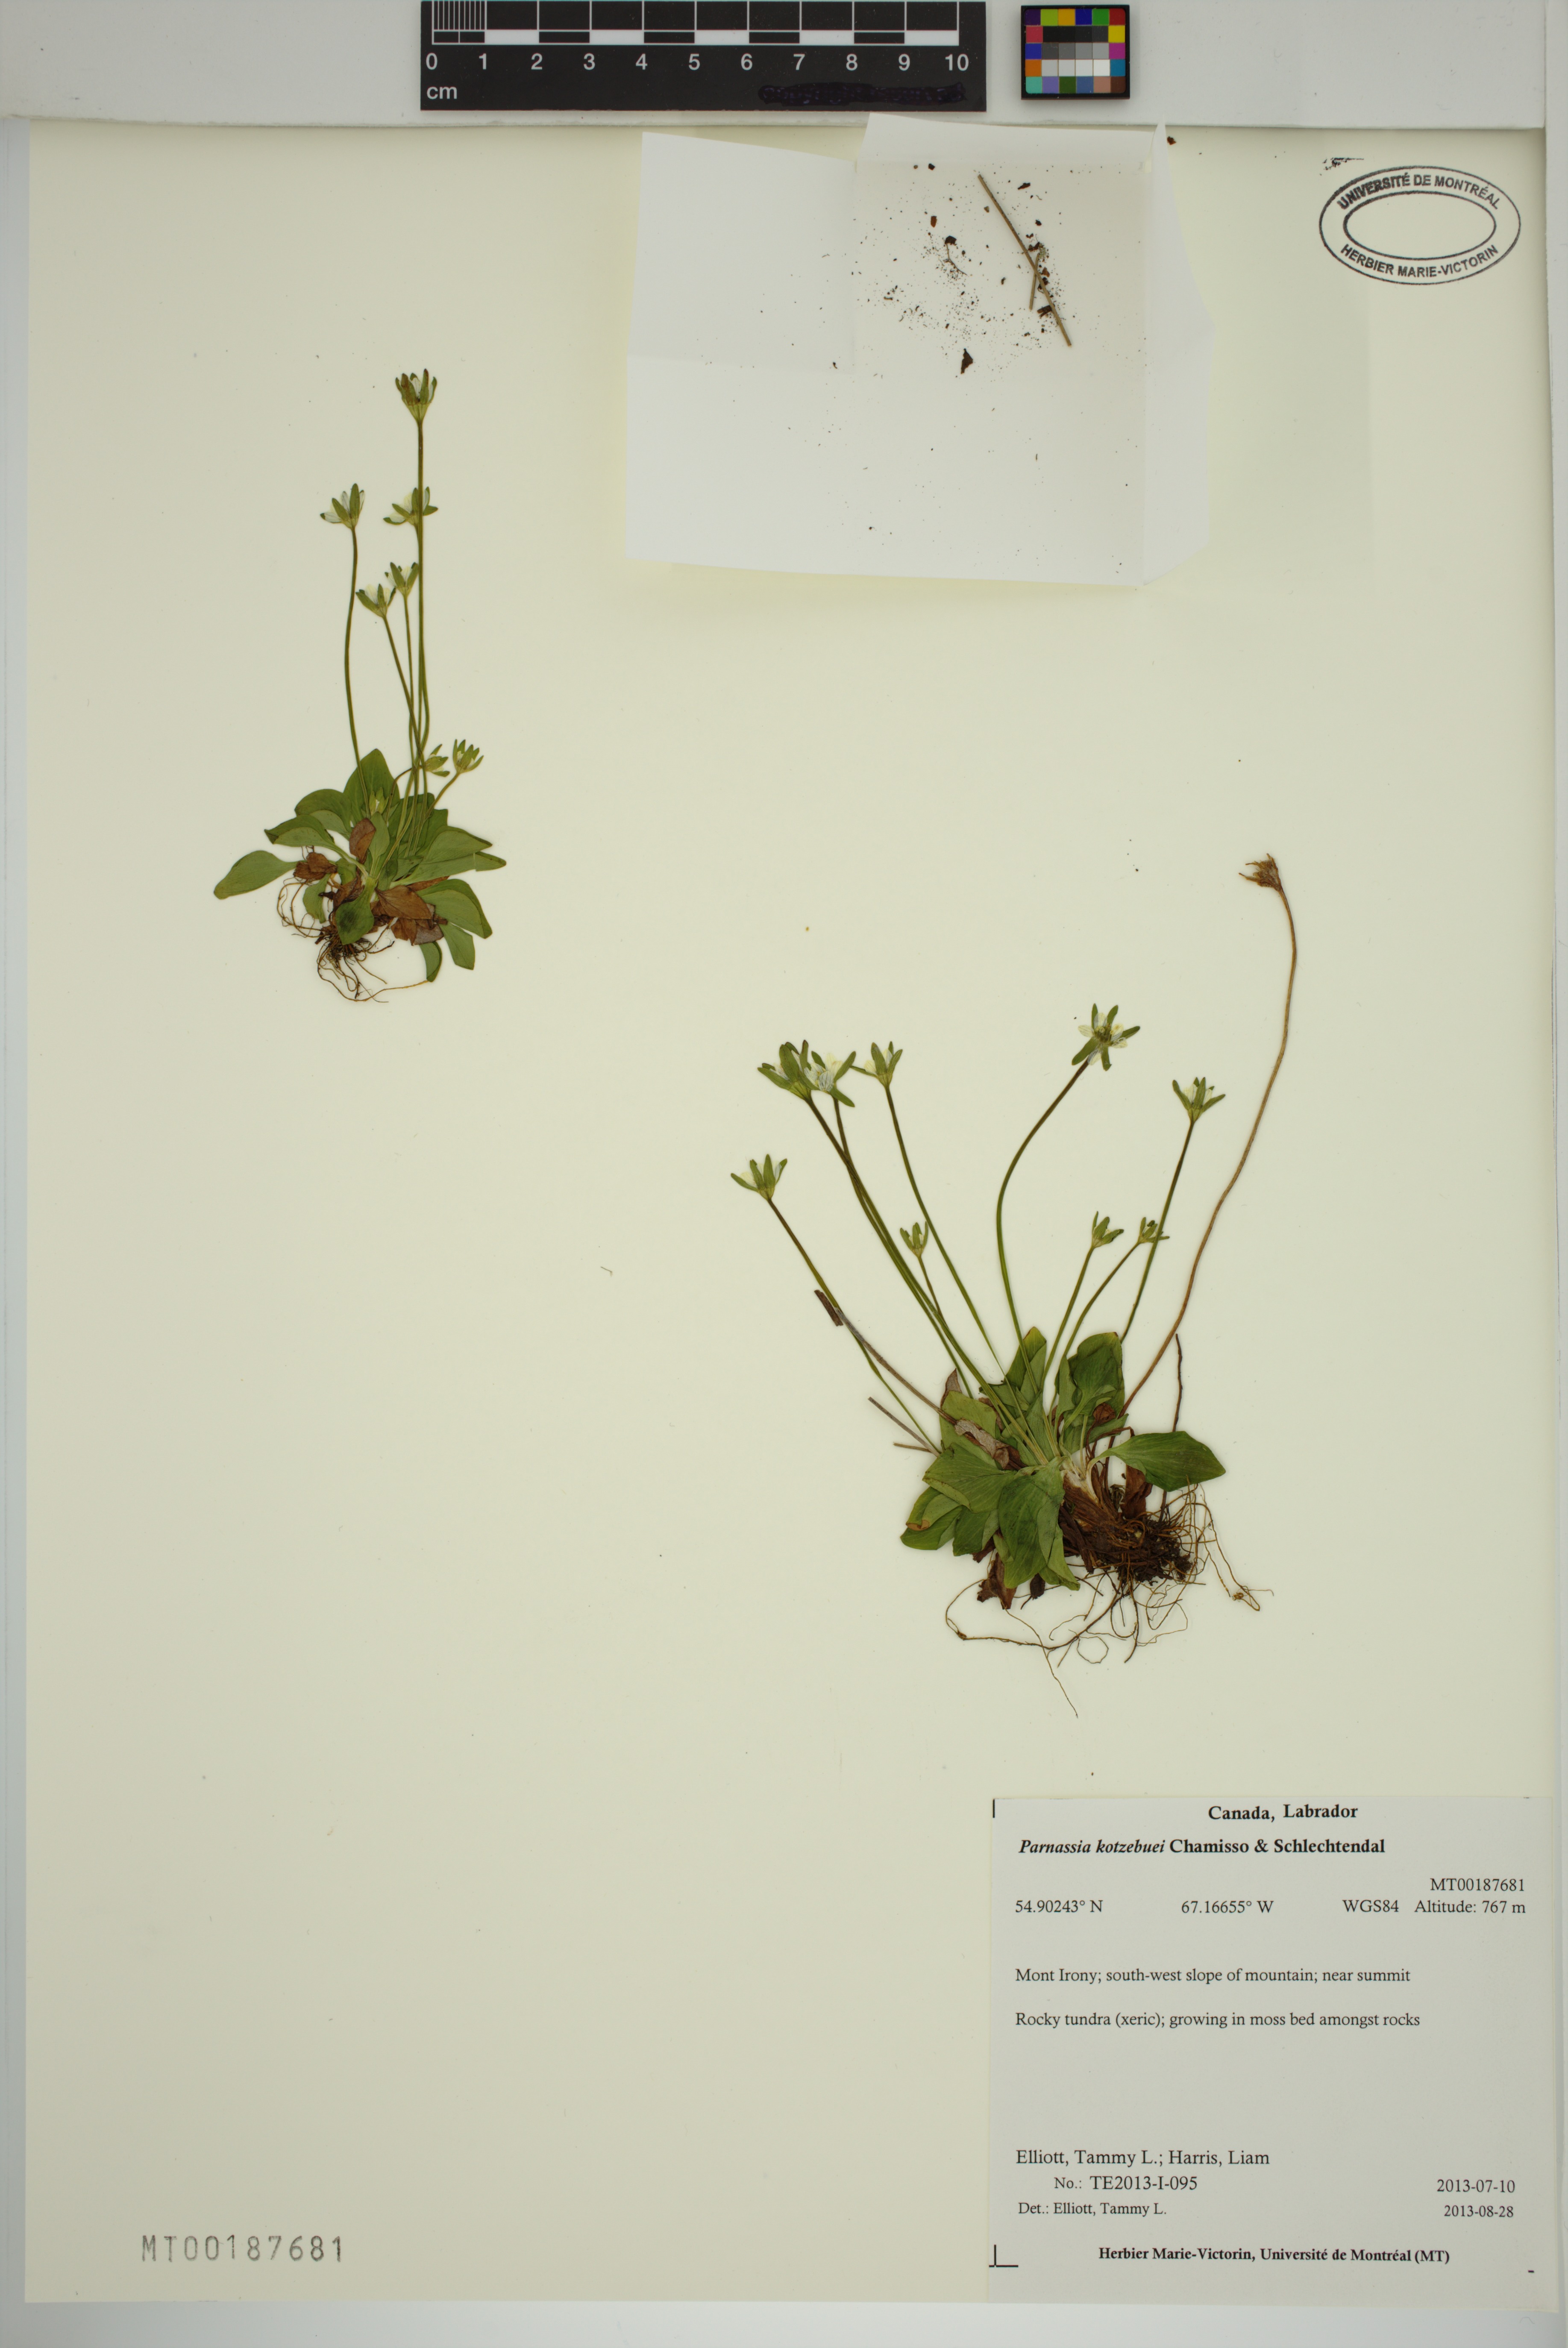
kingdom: Plantae
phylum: Tracheophyta
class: Magnoliopsida
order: Celastrales
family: Parnassiaceae
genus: Parnassia
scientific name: Parnassia kotzebuei
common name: Kotzebue's grass-of-parnassus
